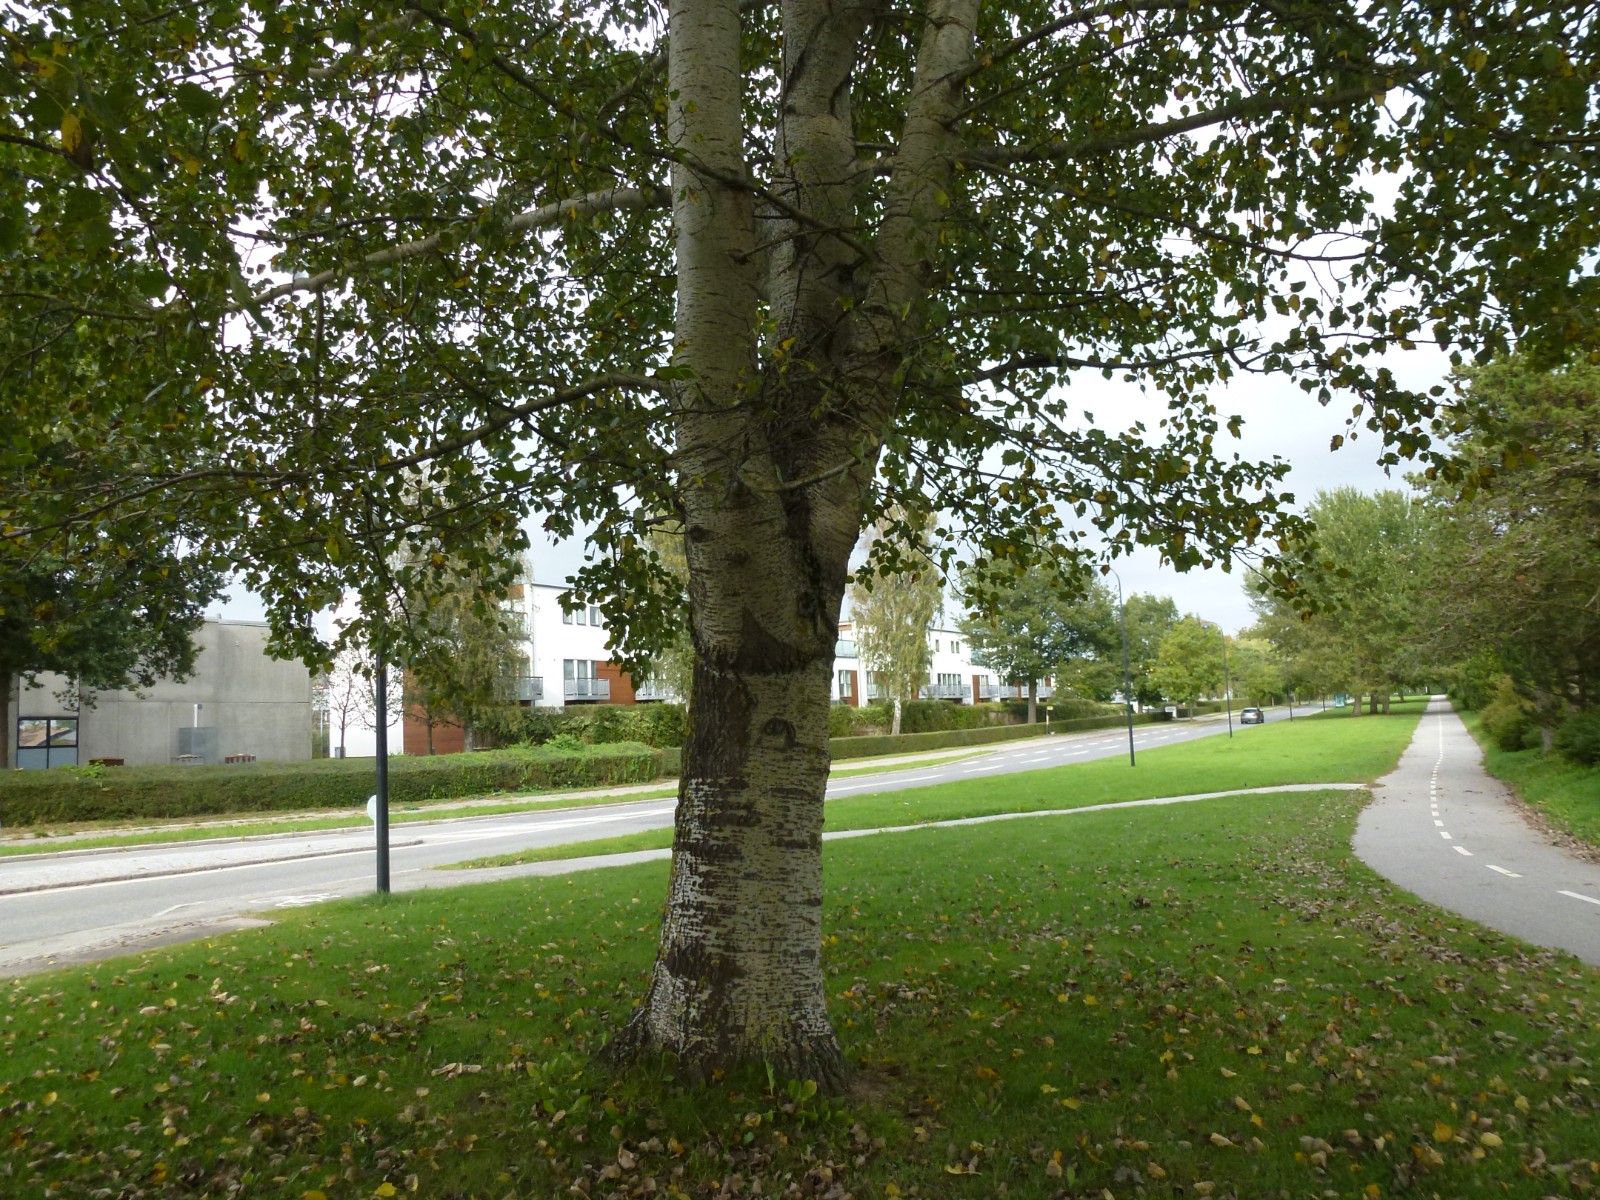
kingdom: Fungi
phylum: Basidiomycota
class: Agaricomycetes
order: Russulales
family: Russulaceae
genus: Lactarius
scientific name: Lactarius controversus
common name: rosabladet mælkehat
